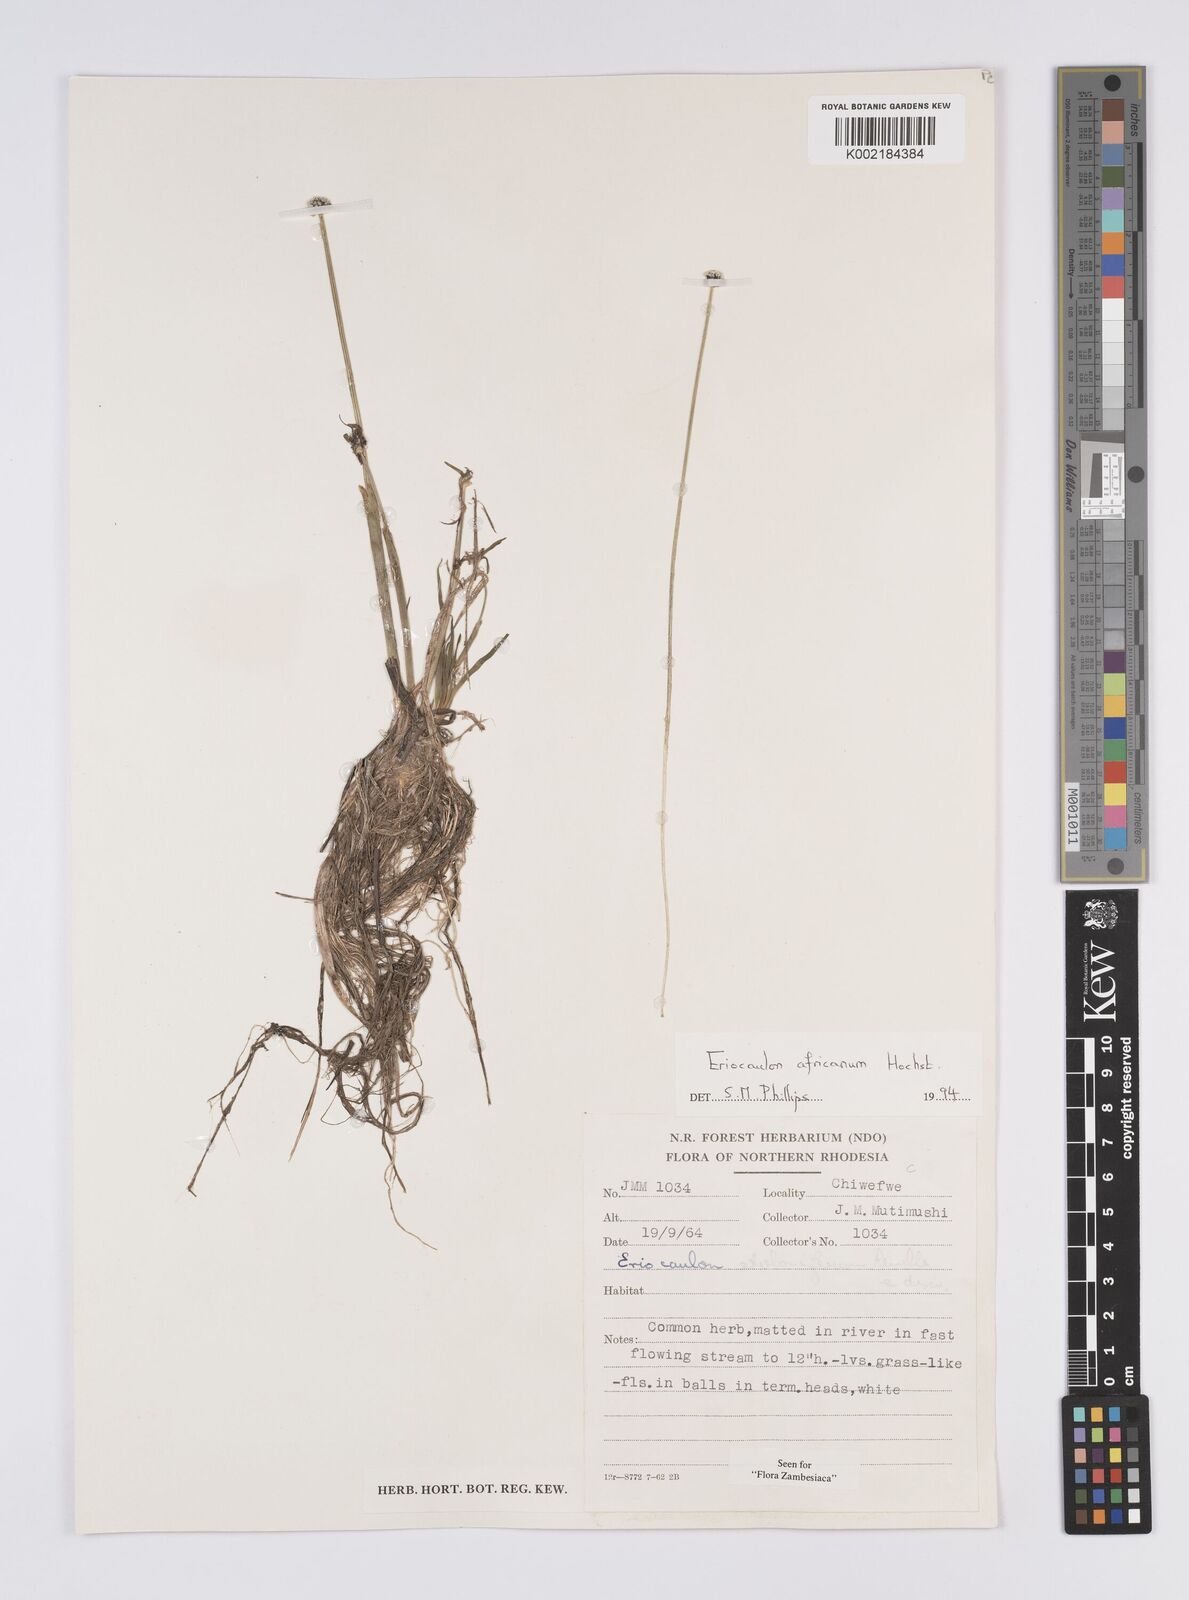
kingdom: Plantae
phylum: Tracheophyta
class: Liliopsida
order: Poales
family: Eriocaulaceae
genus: Eriocaulon
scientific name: Eriocaulon africanum
